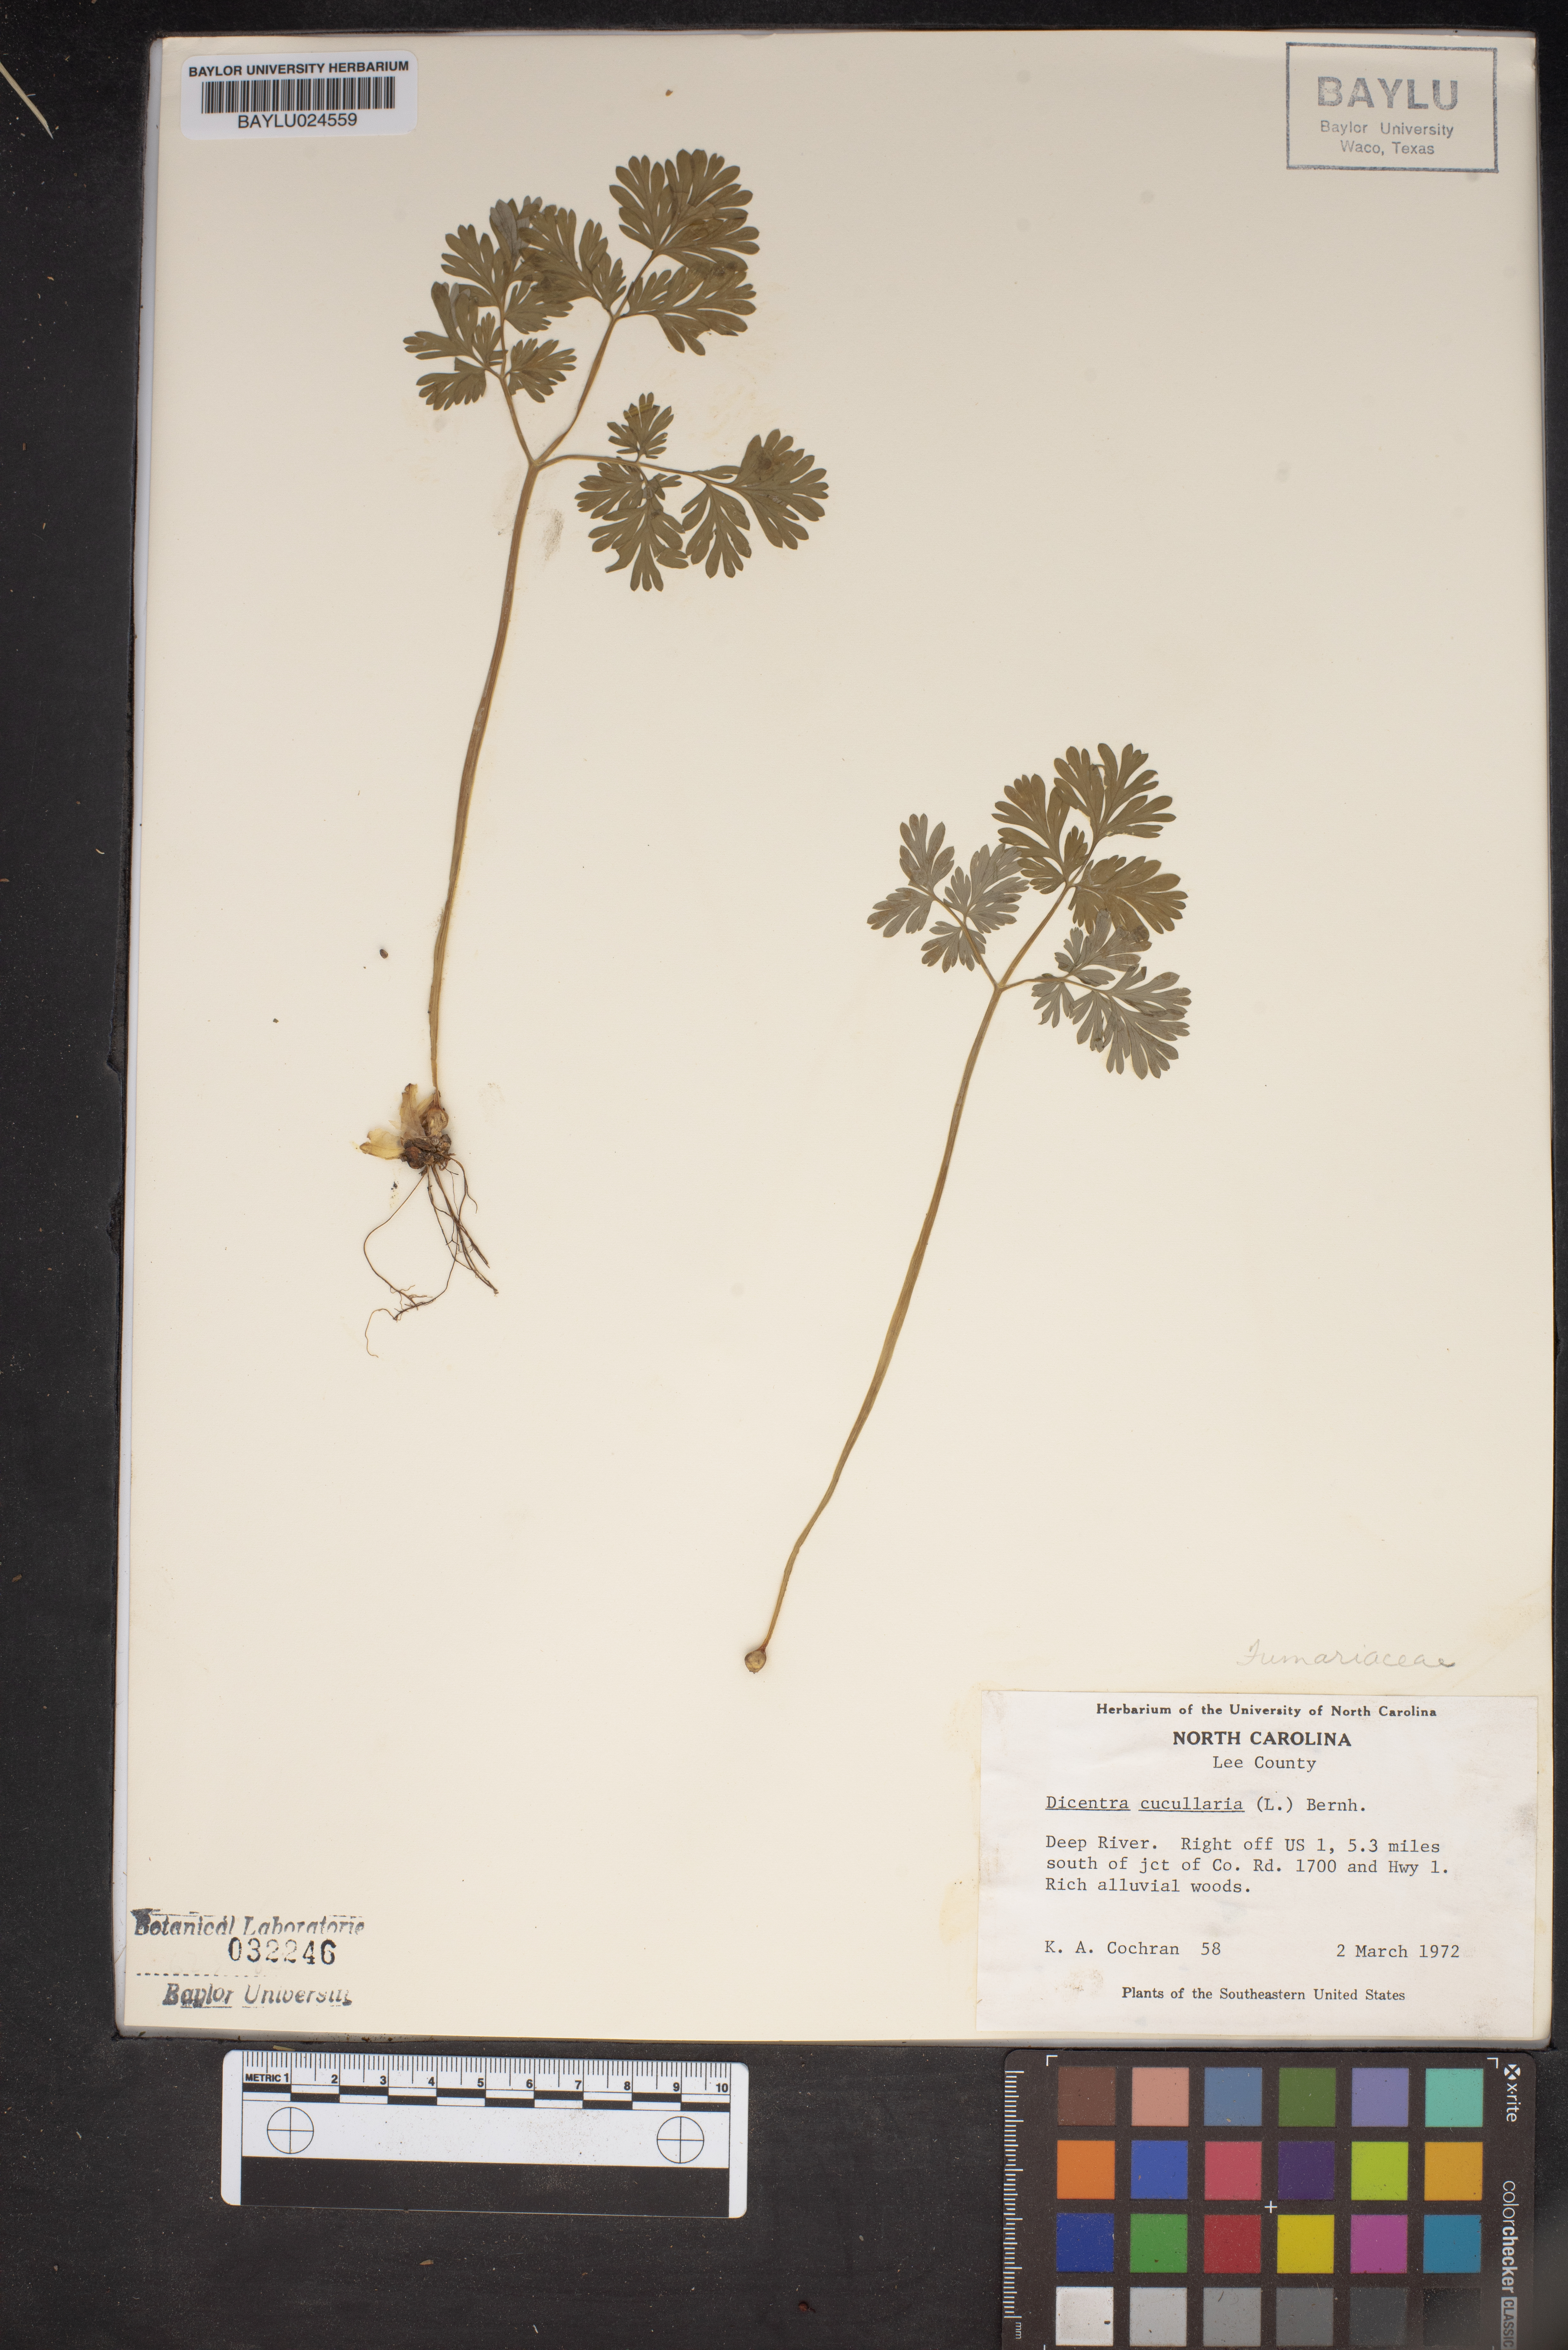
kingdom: Plantae
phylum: Tracheophyta
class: Magnoliopsida
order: Ranunculales
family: Papaveraceae
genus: Dicentra
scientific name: Dicentra cucullaria
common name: Dutchman's breeches
